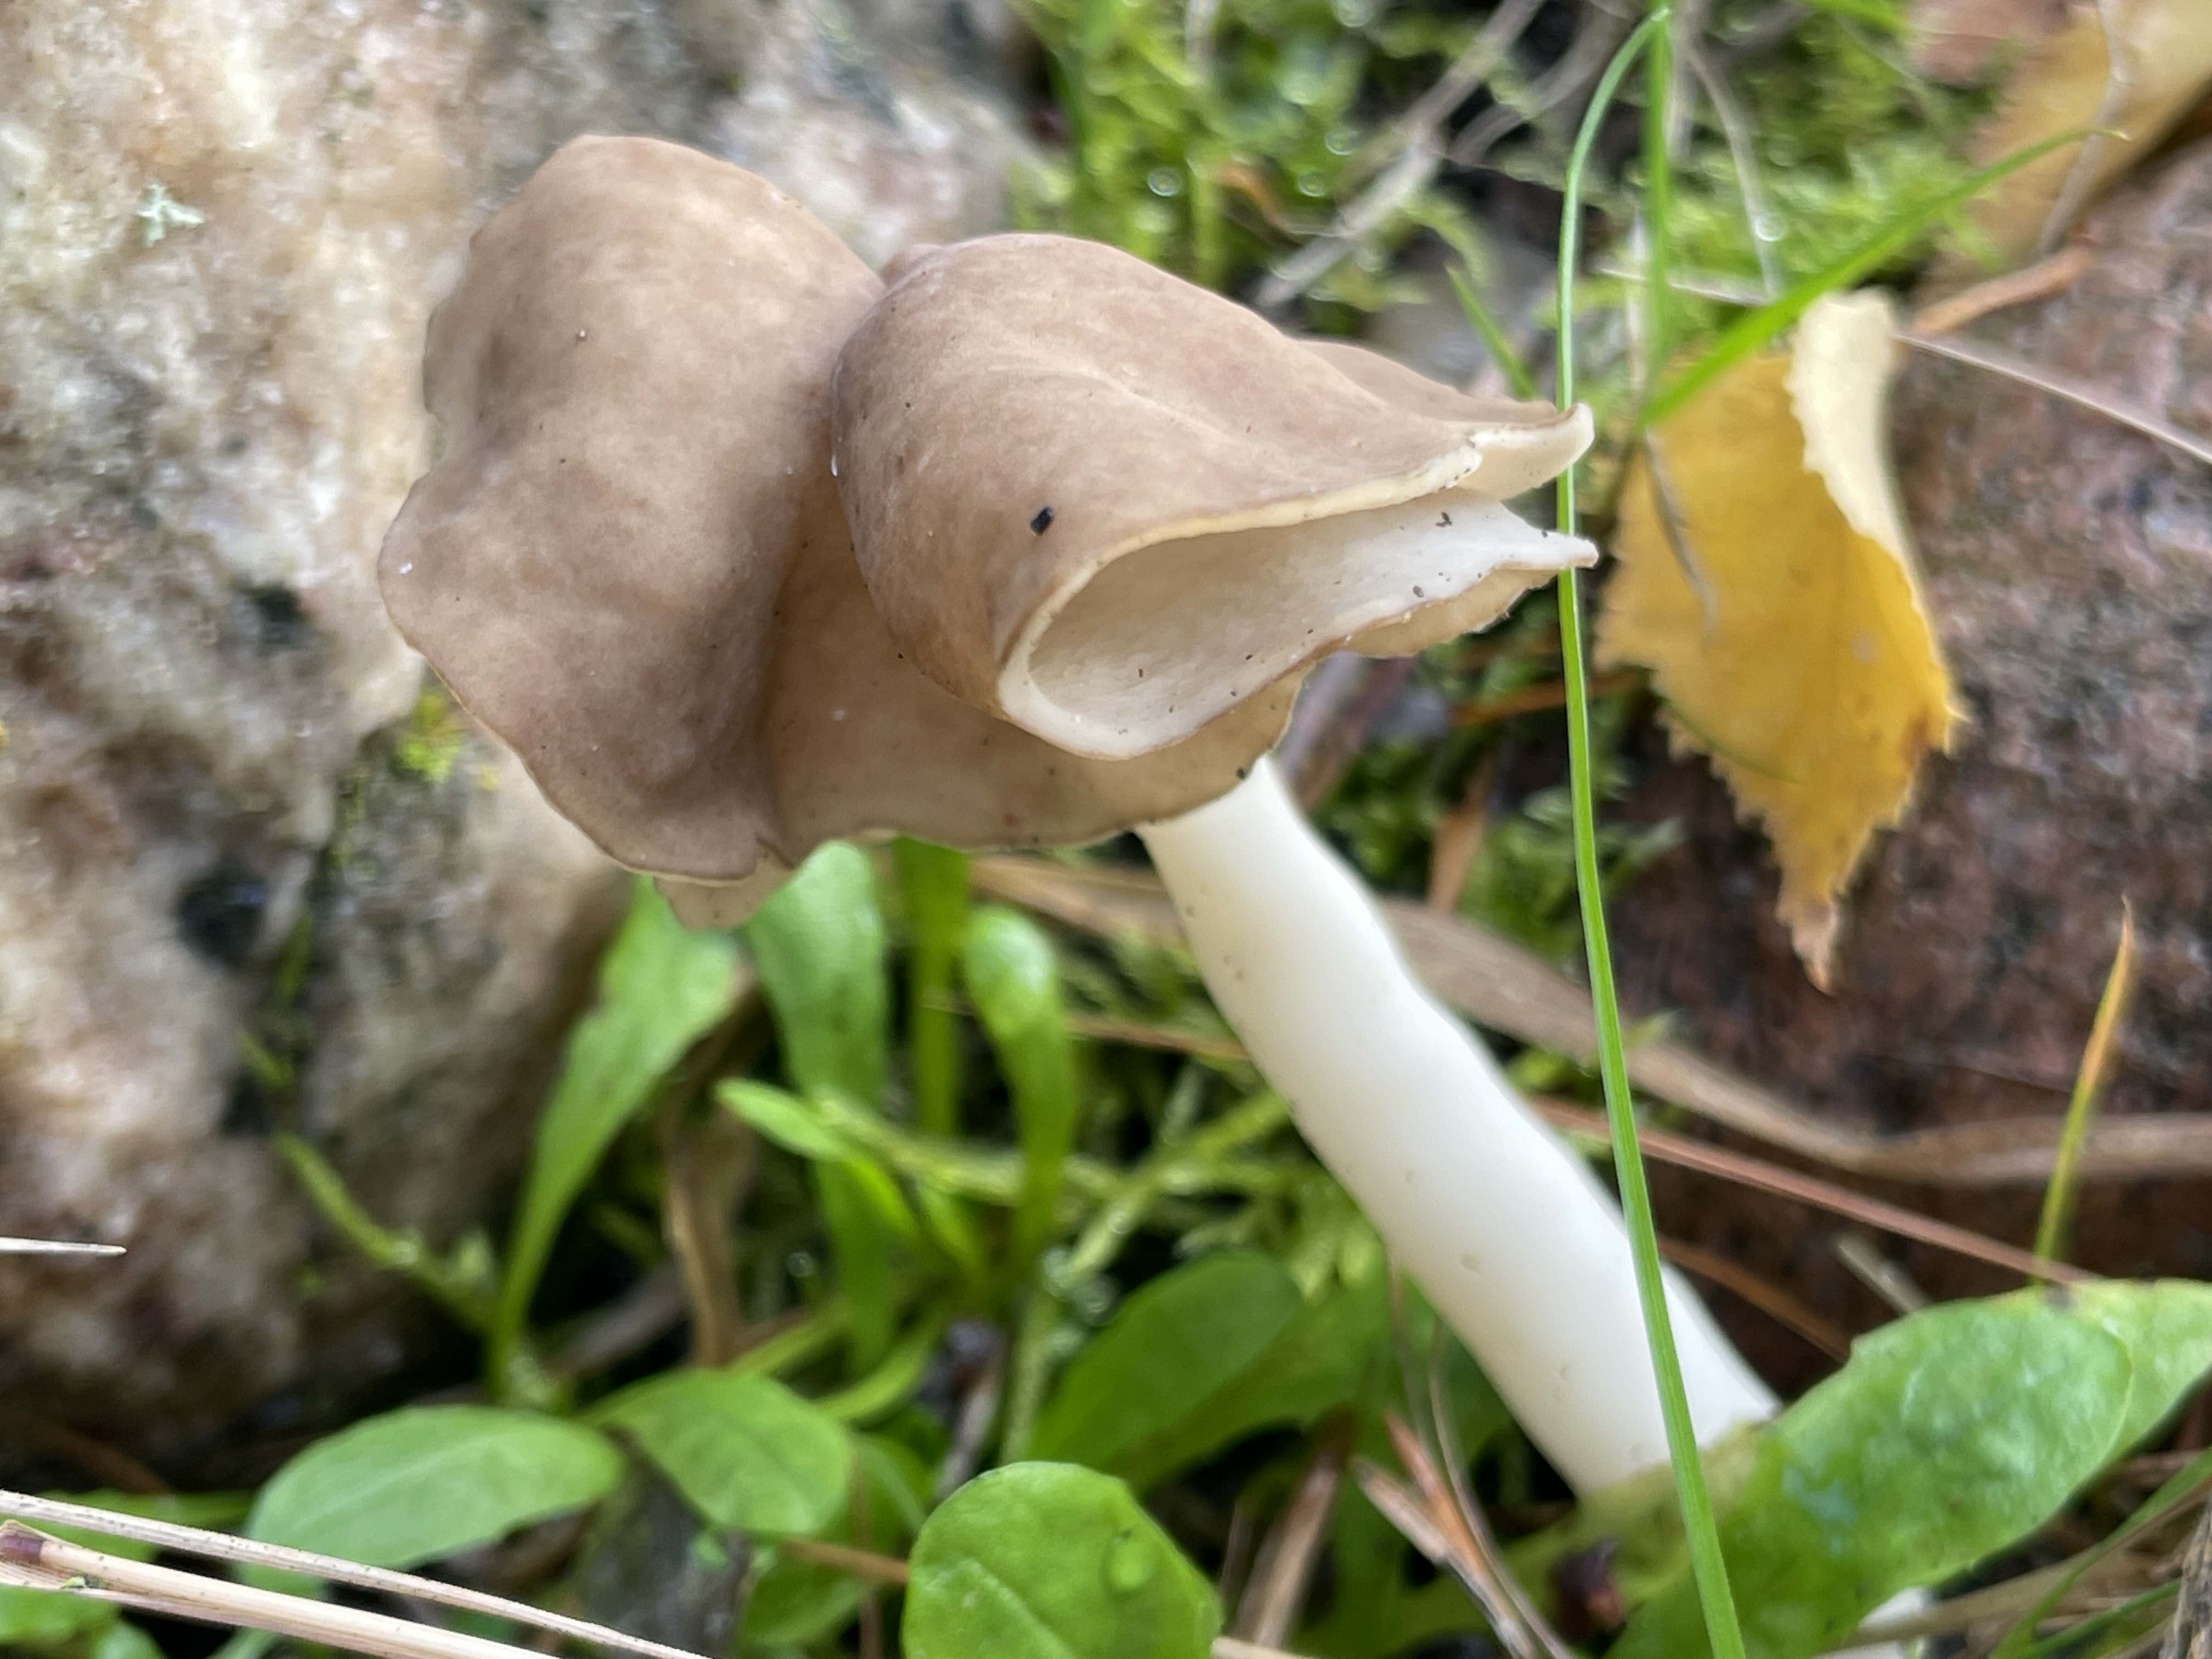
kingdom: Fungi
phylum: Ascomycota
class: Pezizomycetes
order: Pezizales
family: Helvellaceae
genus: Helvella
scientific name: Helvella elastica
